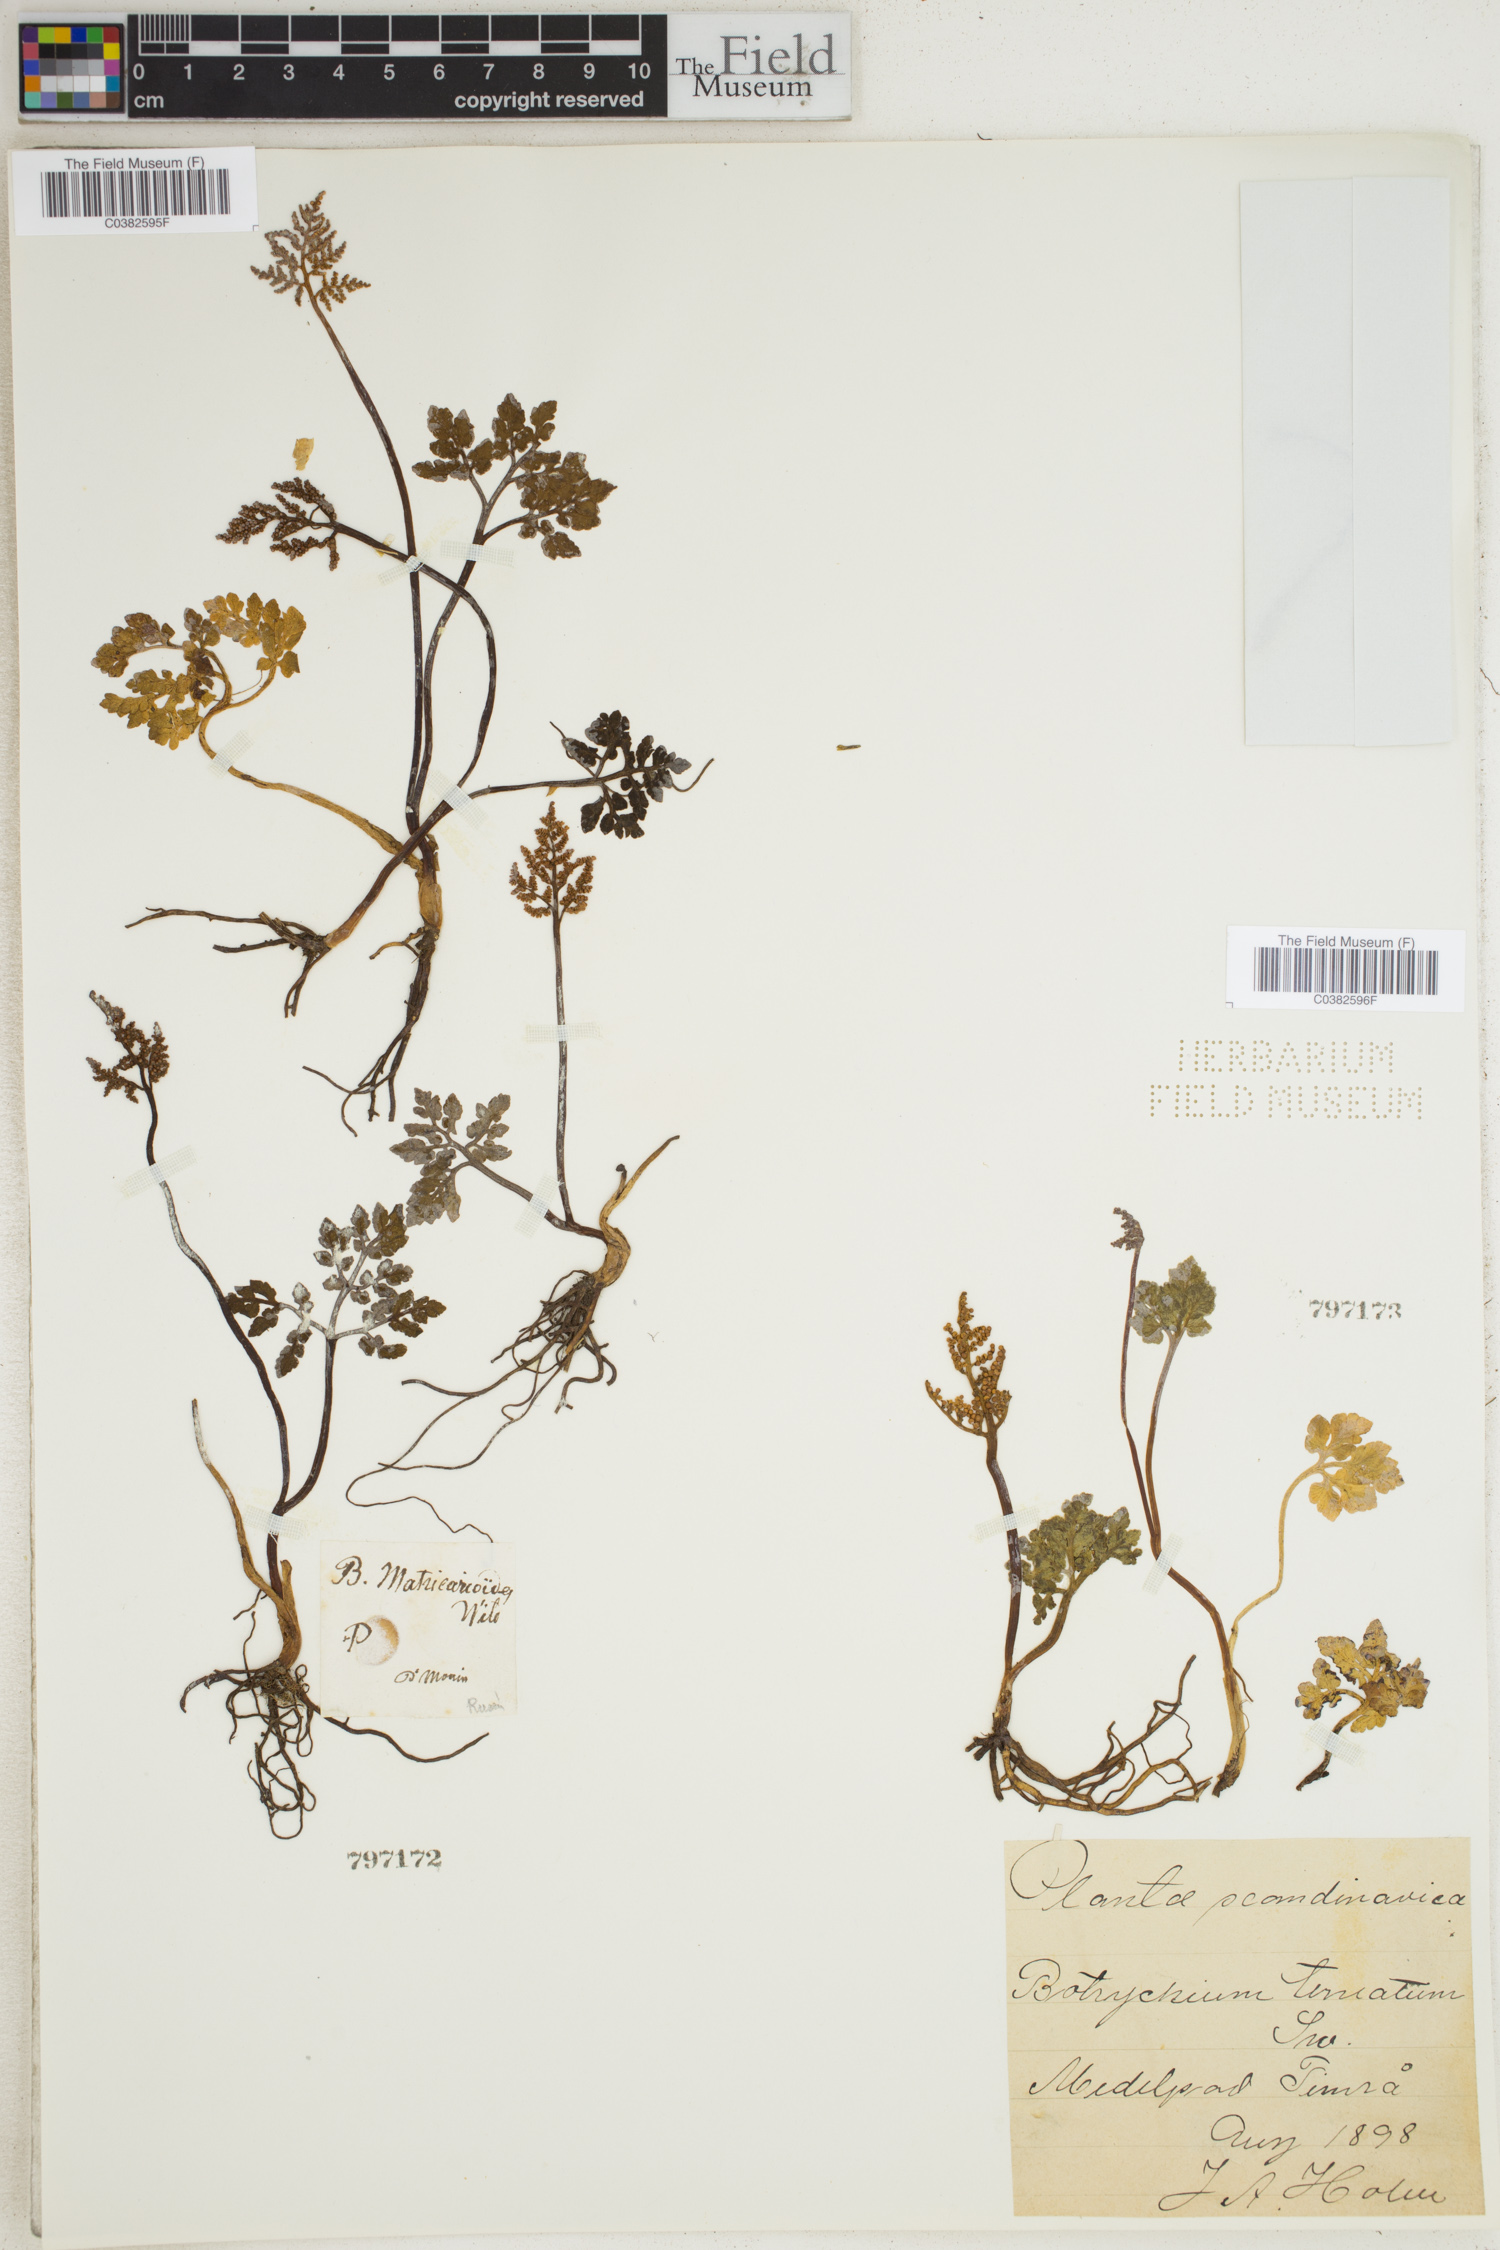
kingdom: Plantae
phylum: Tracheophyta
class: Polypodiopsida
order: Ophioglossales
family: Ophioglossaceae
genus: Sceptridium
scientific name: Sceptridium multifidum
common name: Leathery grape fern
